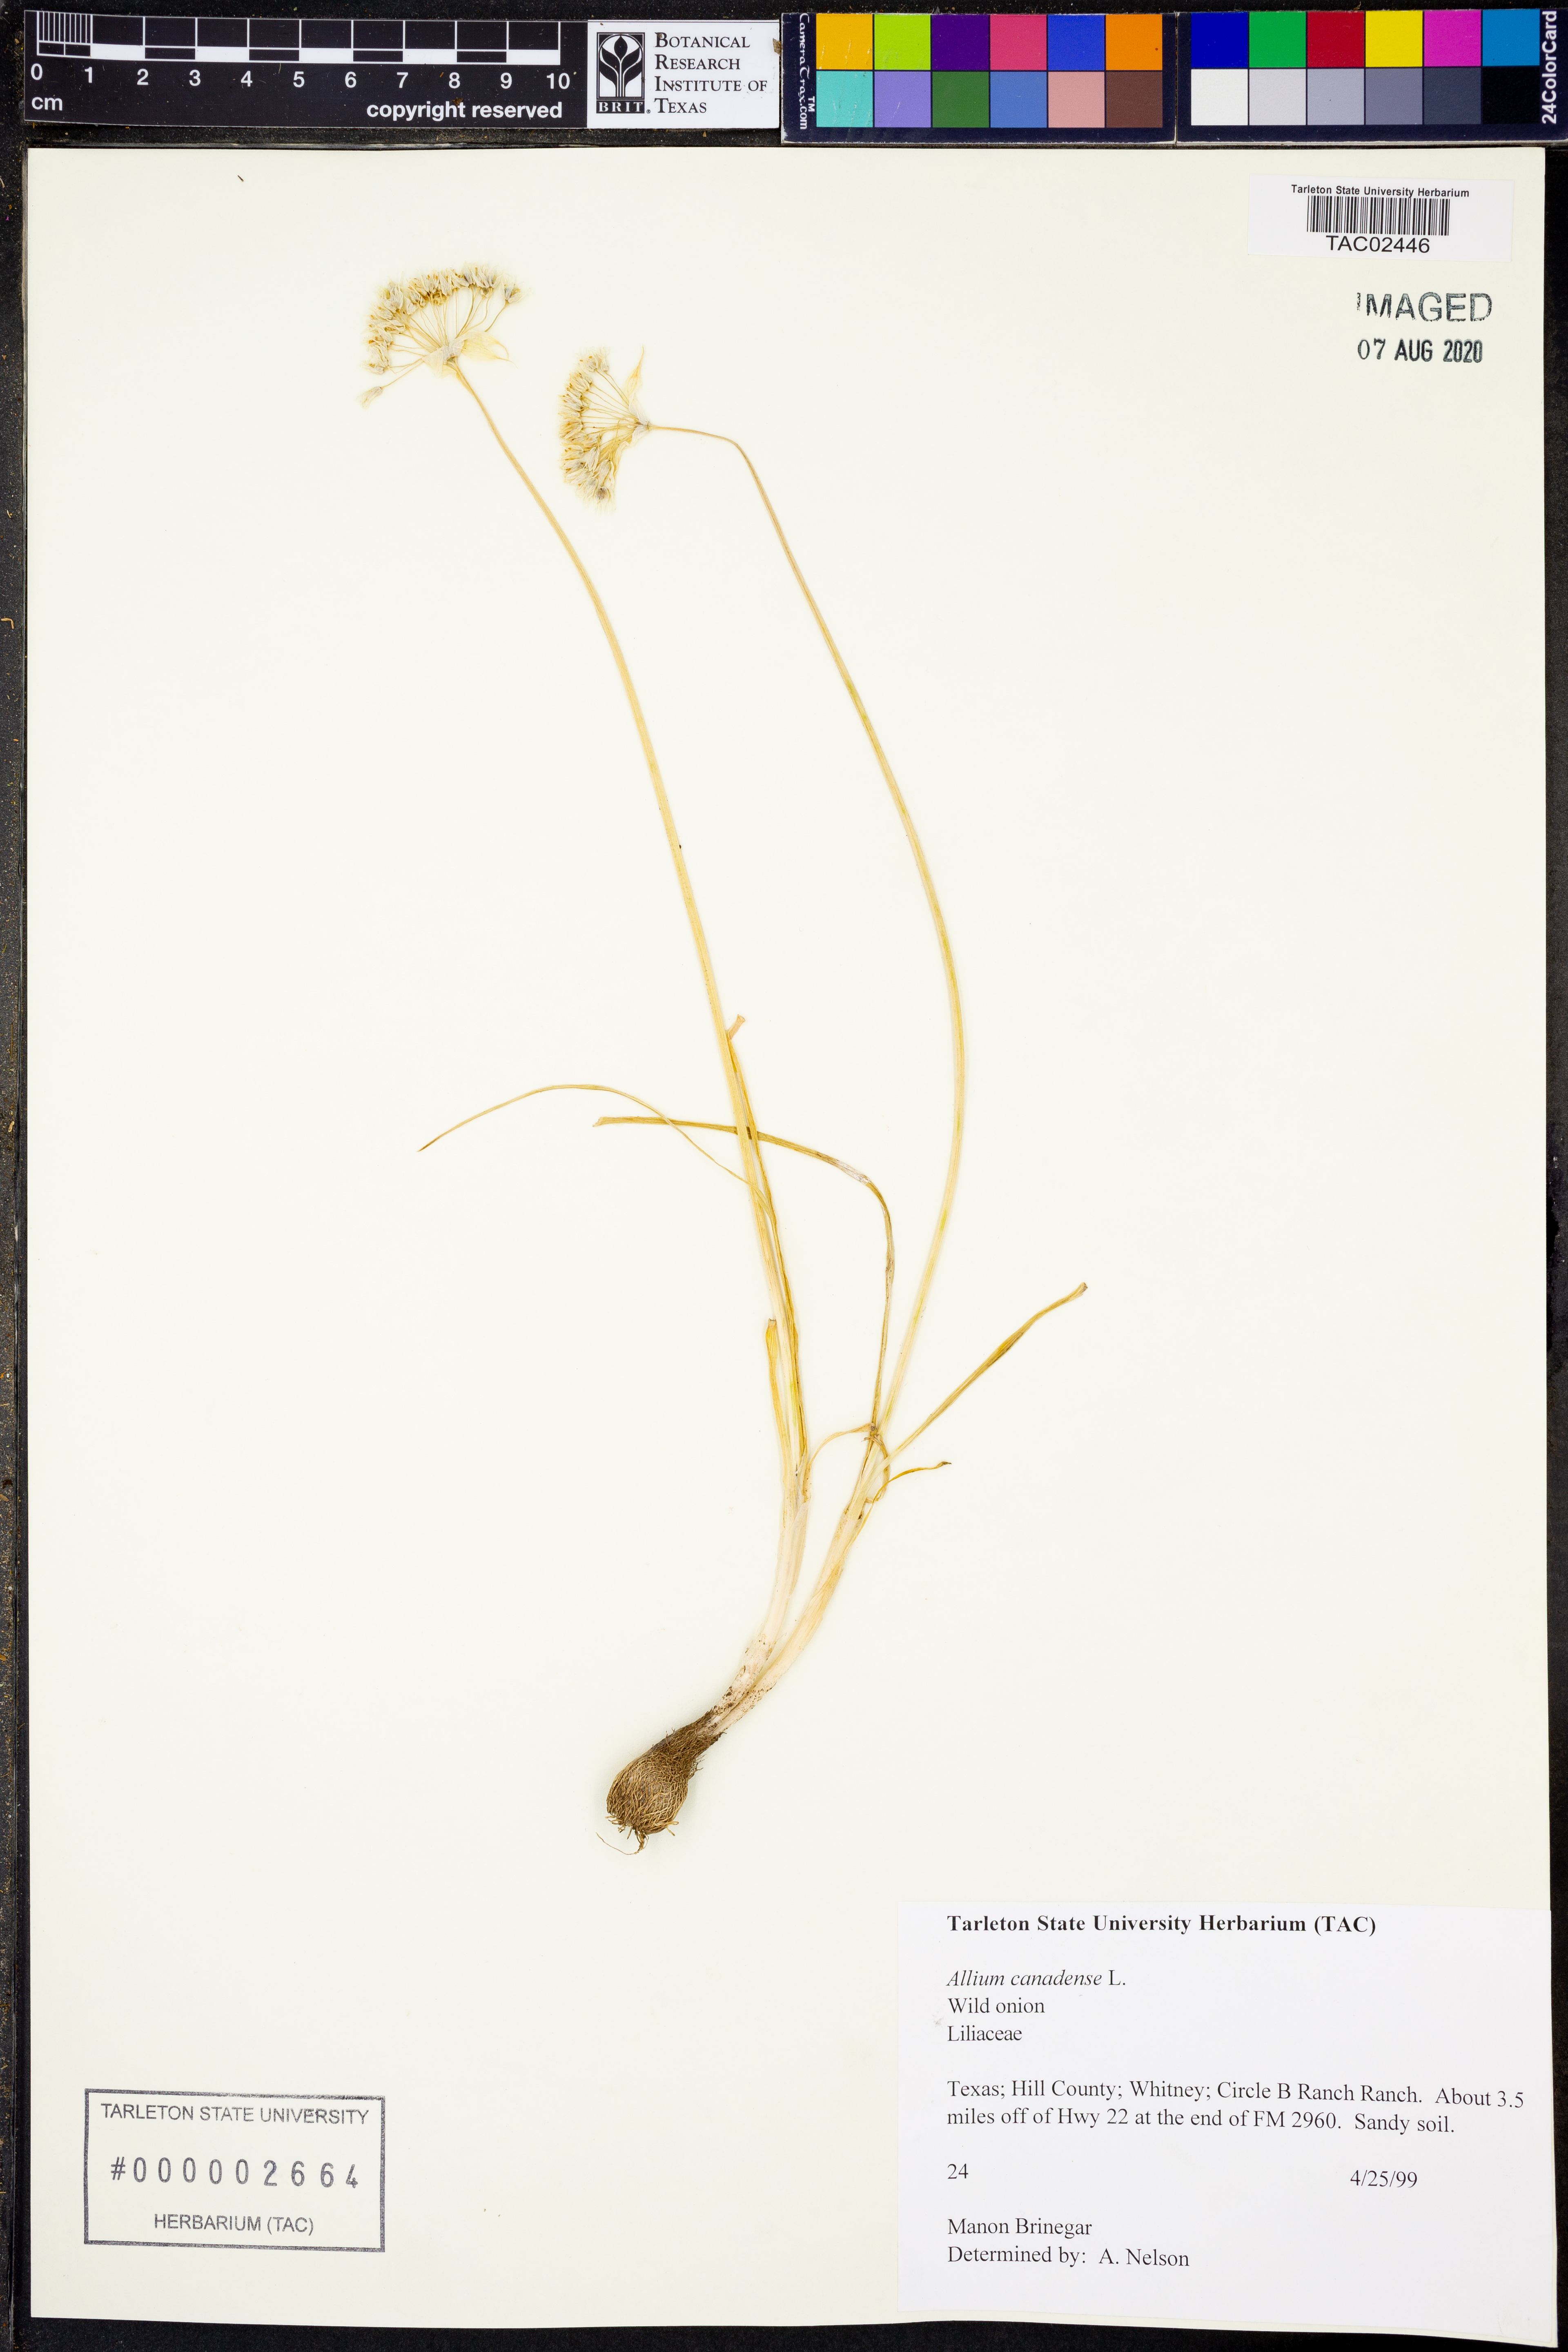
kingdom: Plantae
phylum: Tracheophyta
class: Liliopsida
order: Asparagales
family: Amaryllidaceae
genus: Allium
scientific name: Allium canadense
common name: Meadow garlic
